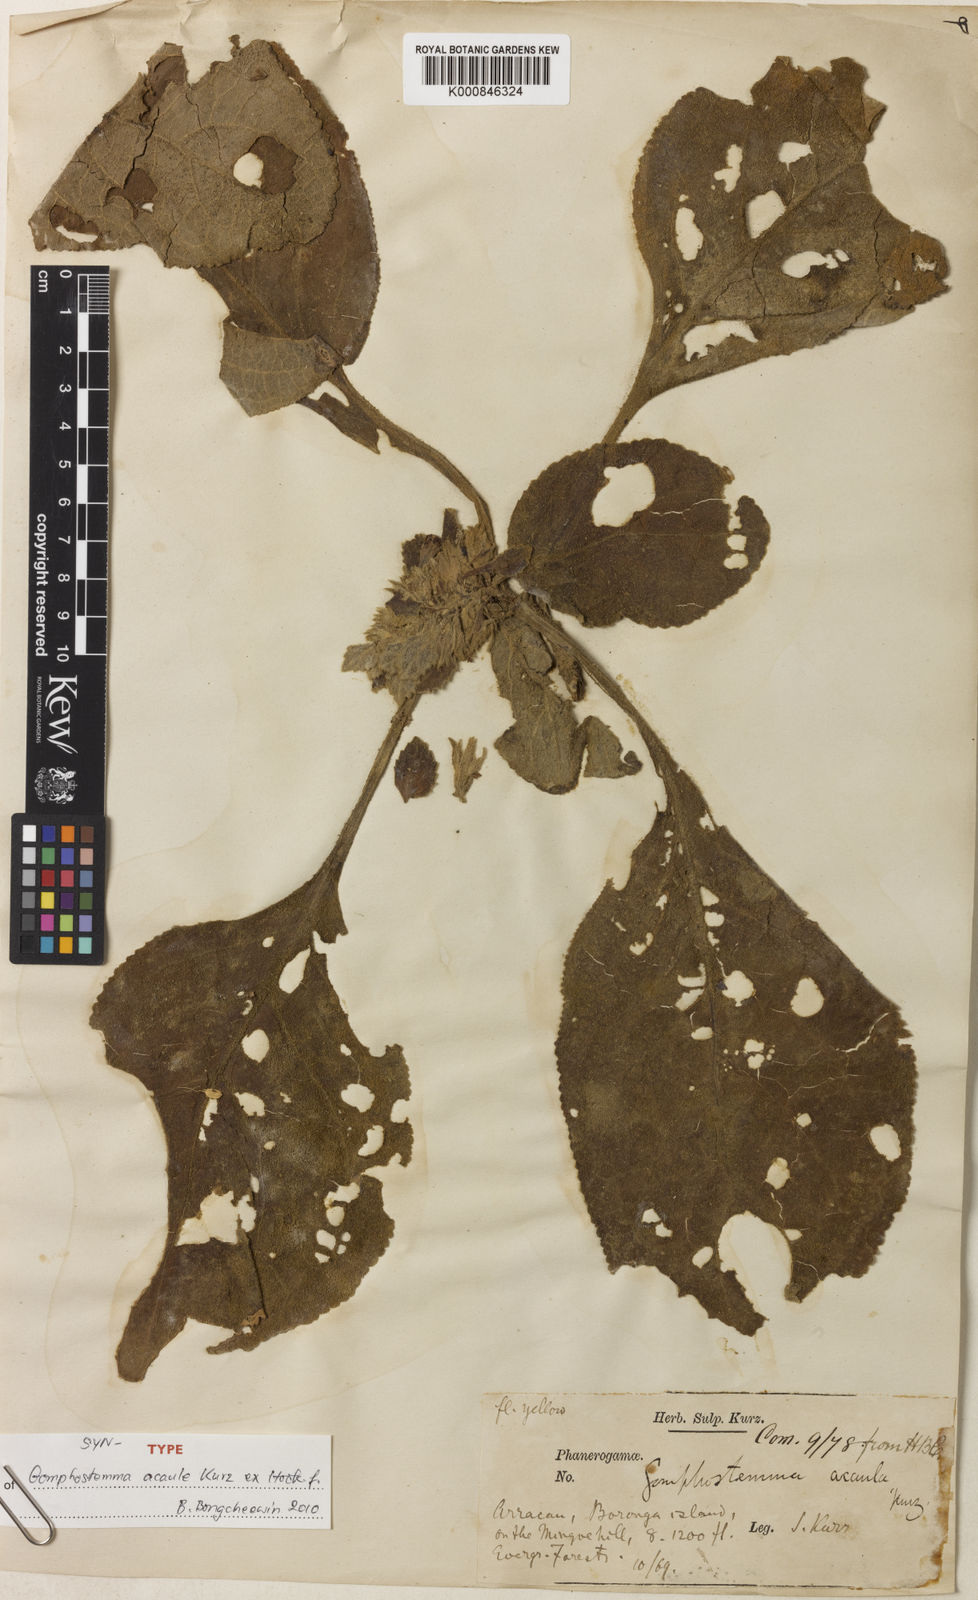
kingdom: Plantae
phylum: Tracheophyta
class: Magnoliopsida
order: Lamiales
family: Lamiaceae
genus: Gomphostemma
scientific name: Gomphostemma strobilinum
